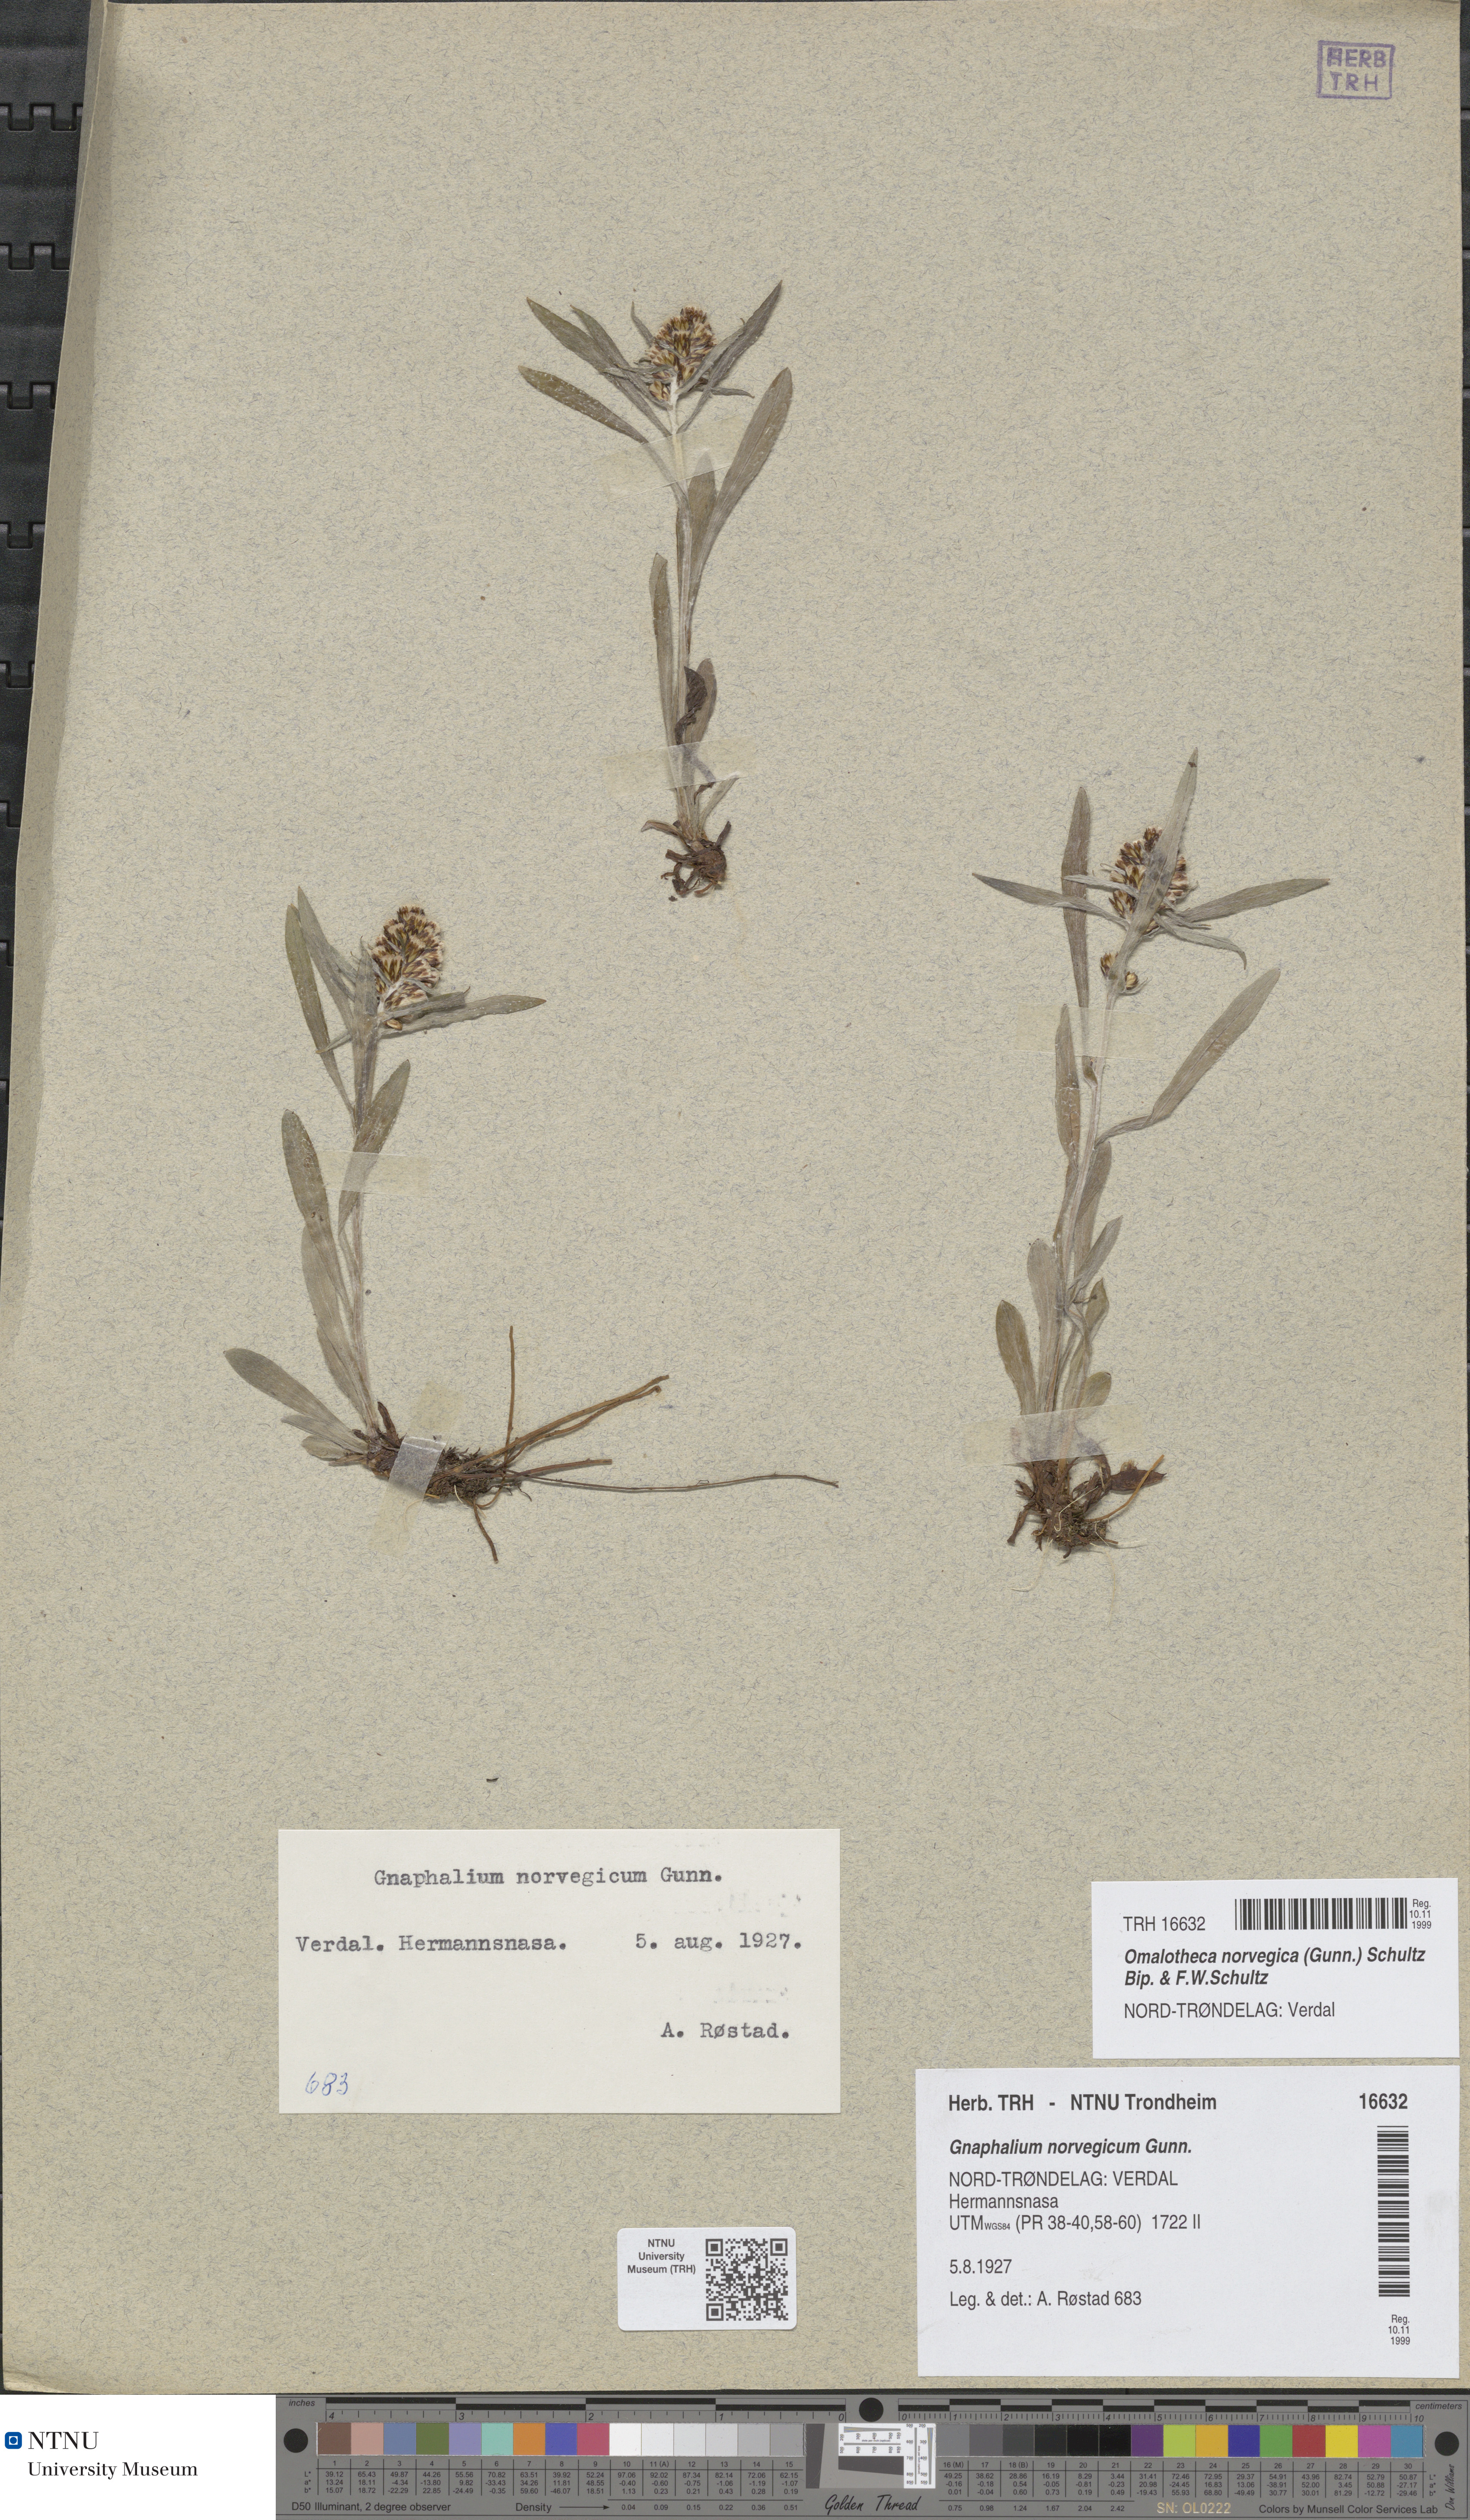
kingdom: Plantae
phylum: Tracheophyta
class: Magnoliopsida
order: Asterales
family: Asteraceae
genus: Omalotheca
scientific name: Omalotheca norvegica
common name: Norwegian arctic-cudweed
